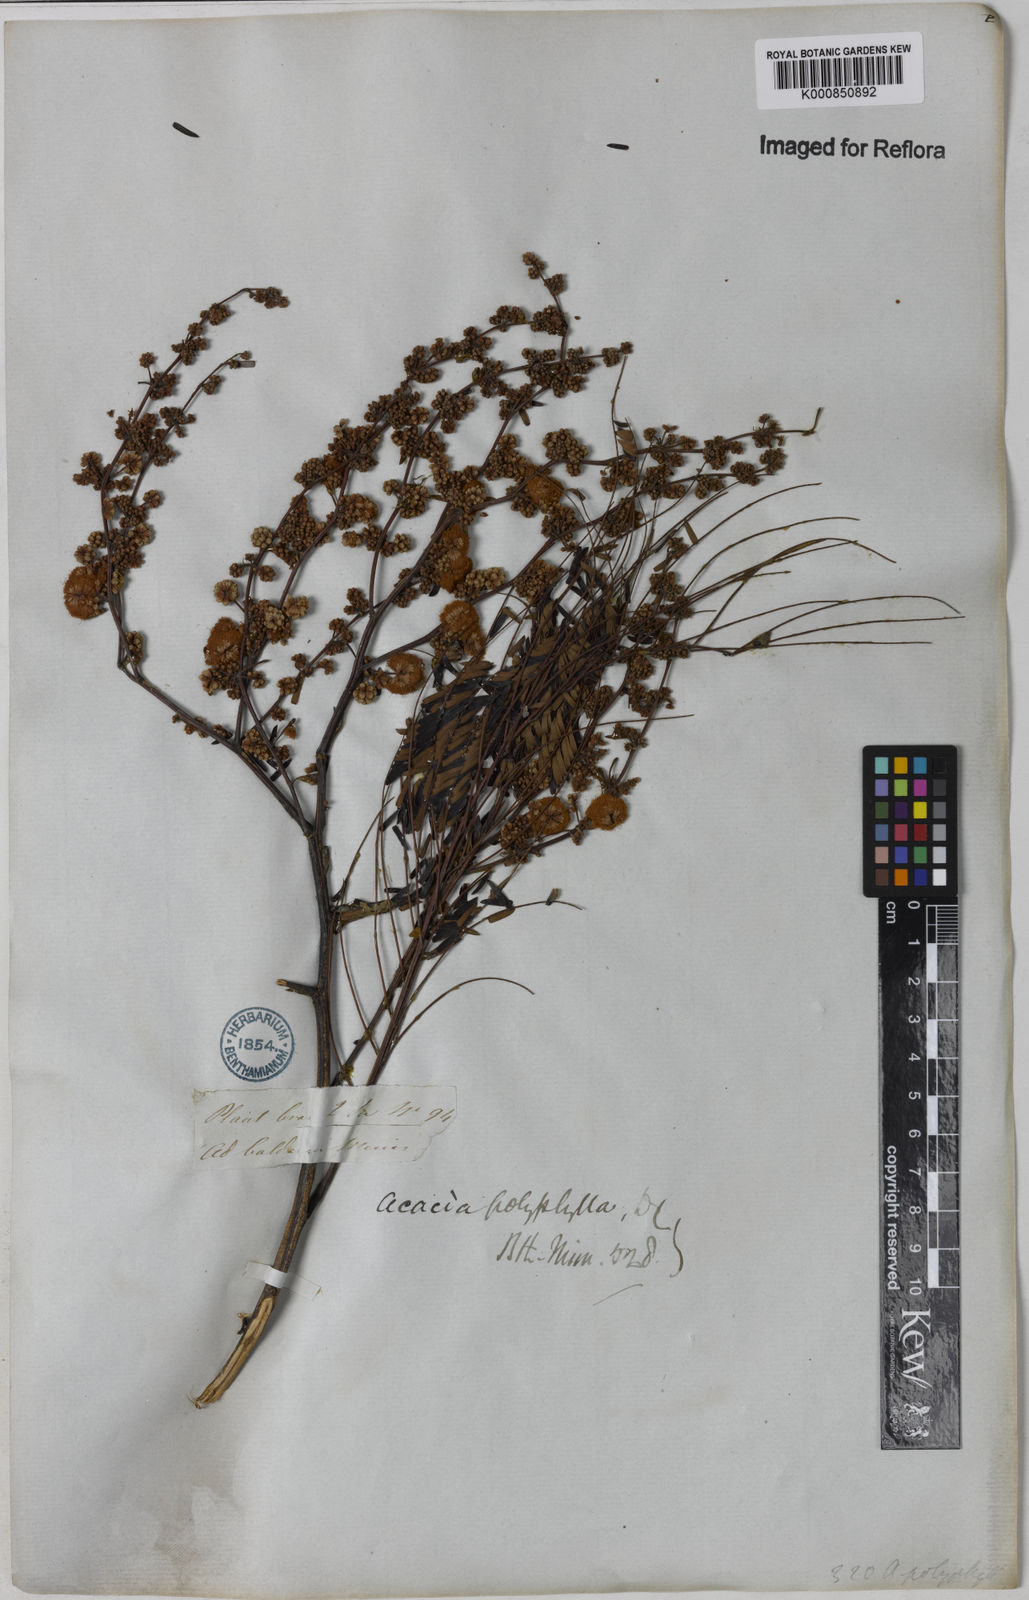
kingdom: Plantae
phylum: Tracheophyta
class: Magnoliopsida
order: Fabales
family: Fabaceae
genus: Senegalia
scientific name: Senegalia polyphylla
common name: White-tamarind
